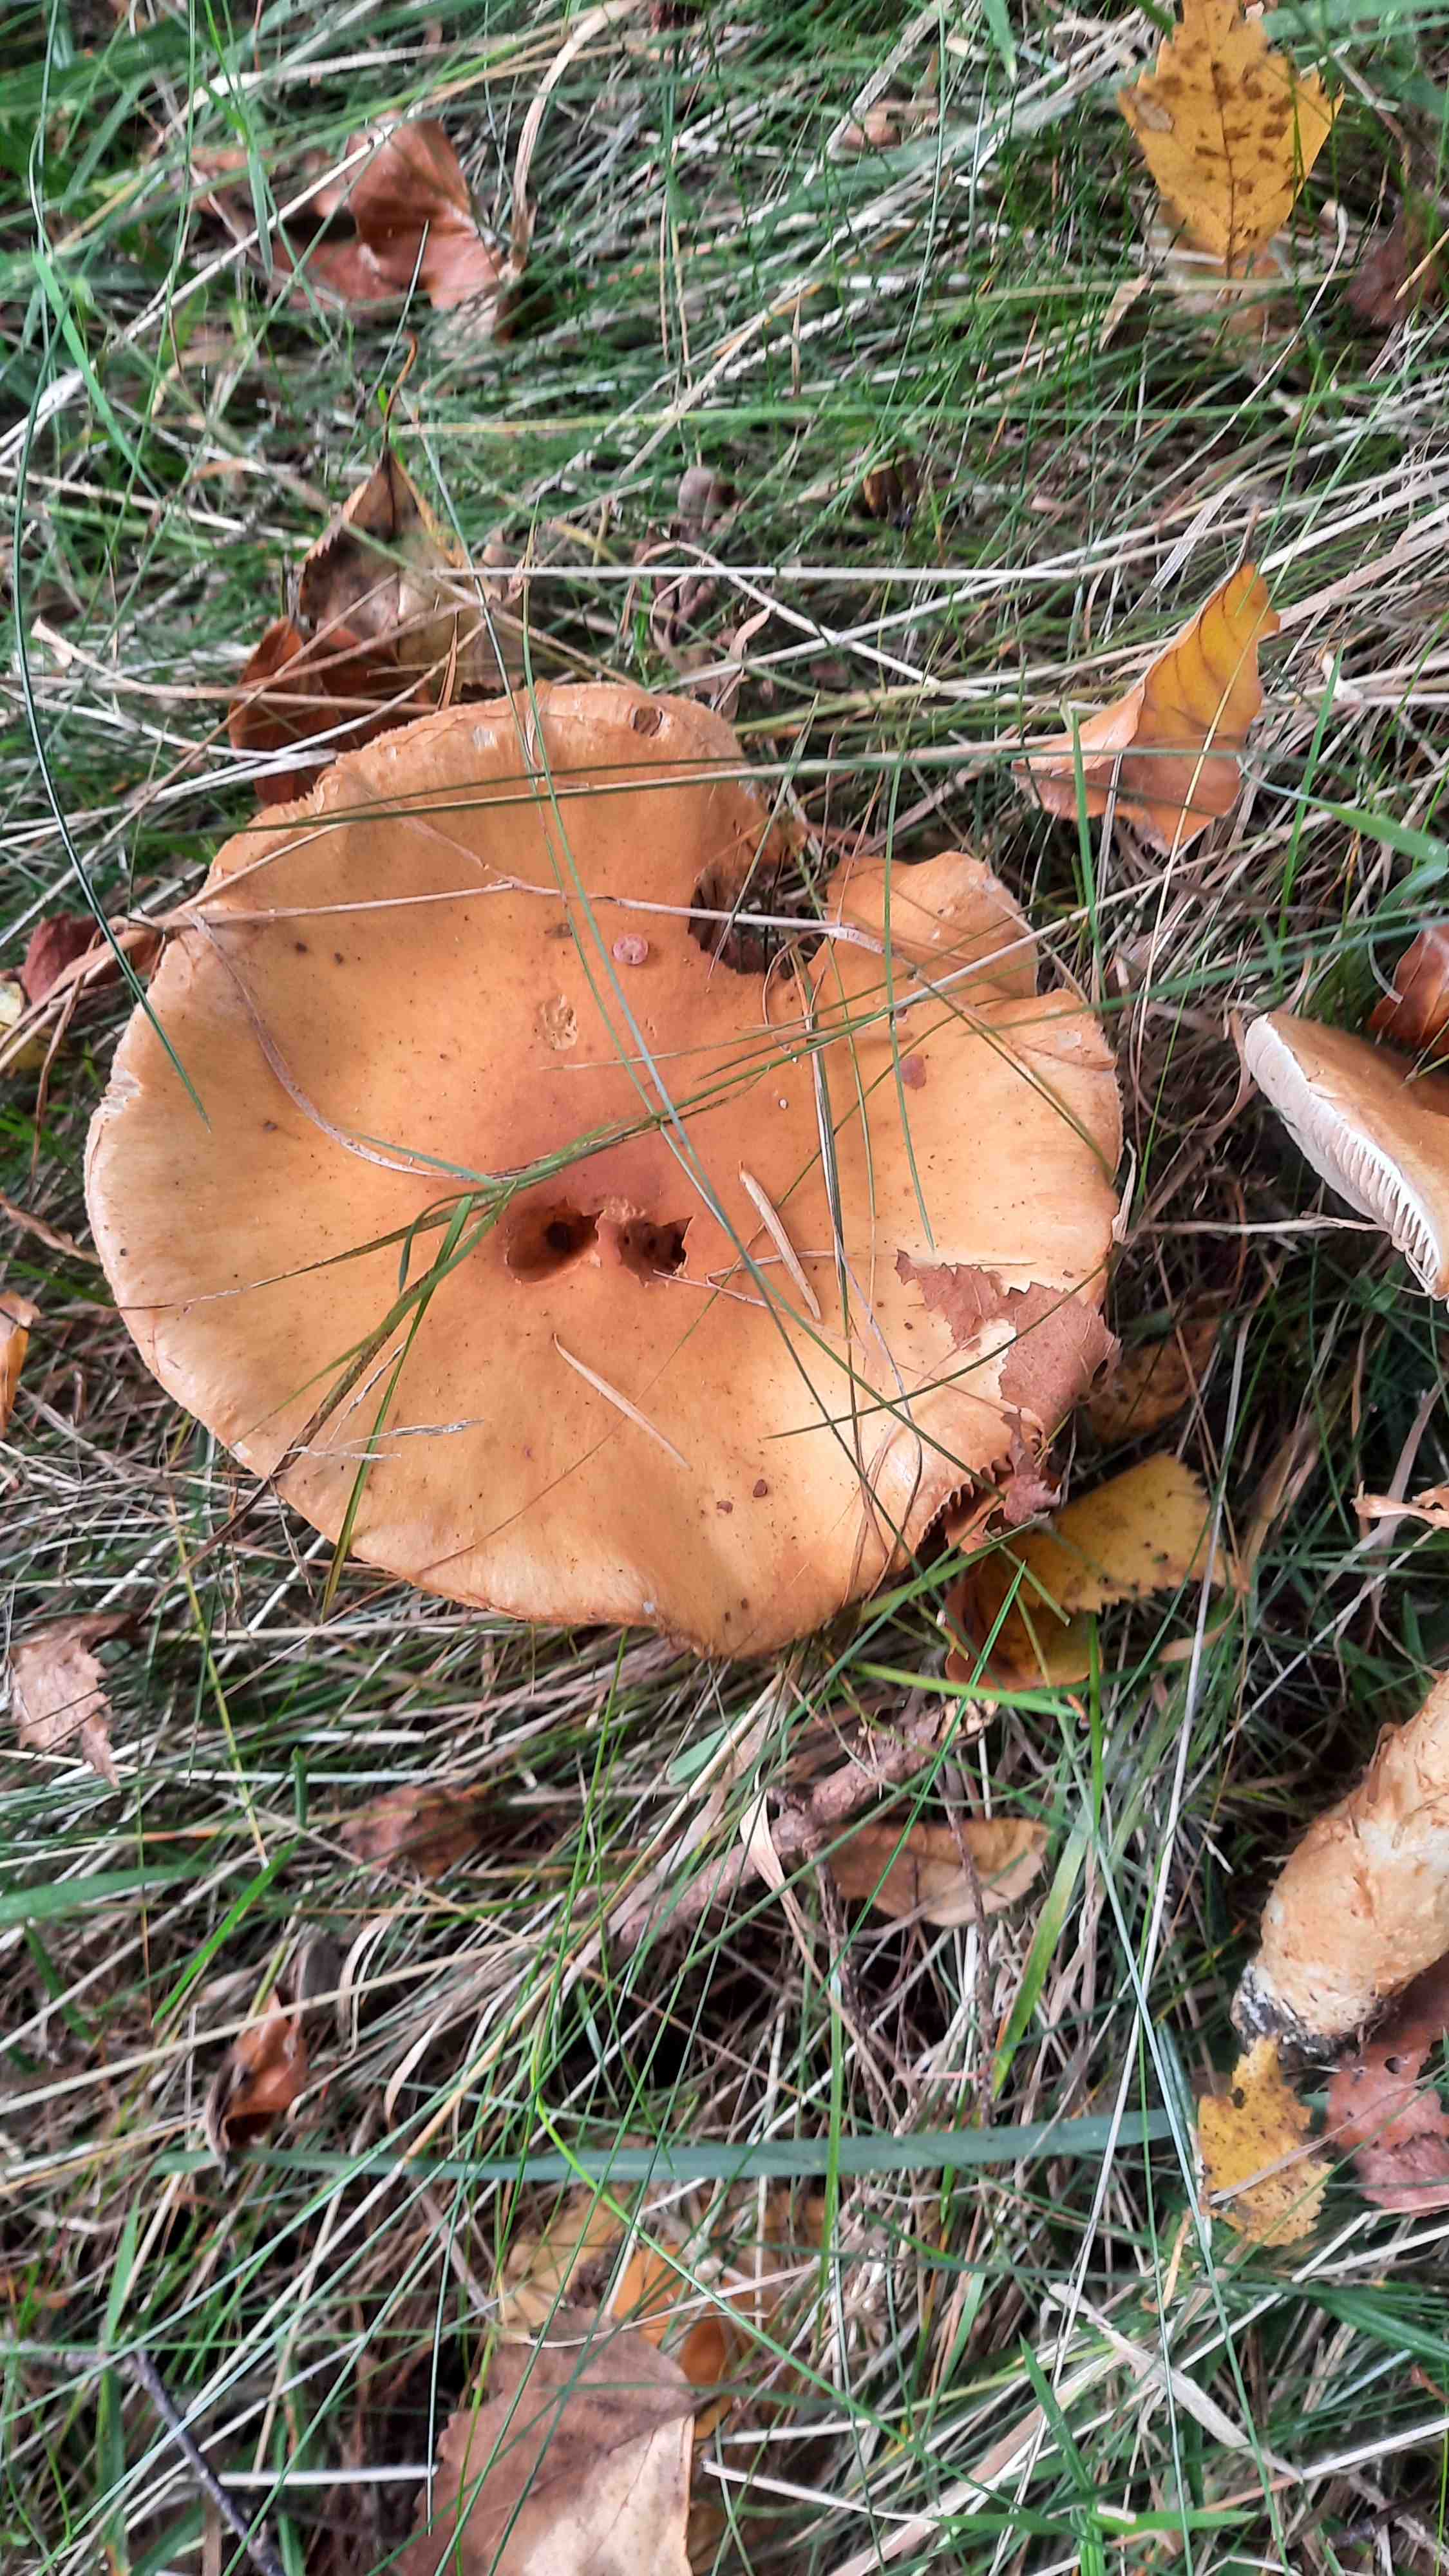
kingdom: Fungi
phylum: Basidiomycota
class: Agaricomycetes
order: Agaricales
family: Cortinariaceae
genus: Phlegmacium
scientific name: Phlegmacium triumphans
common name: gulbæltet slørhat
